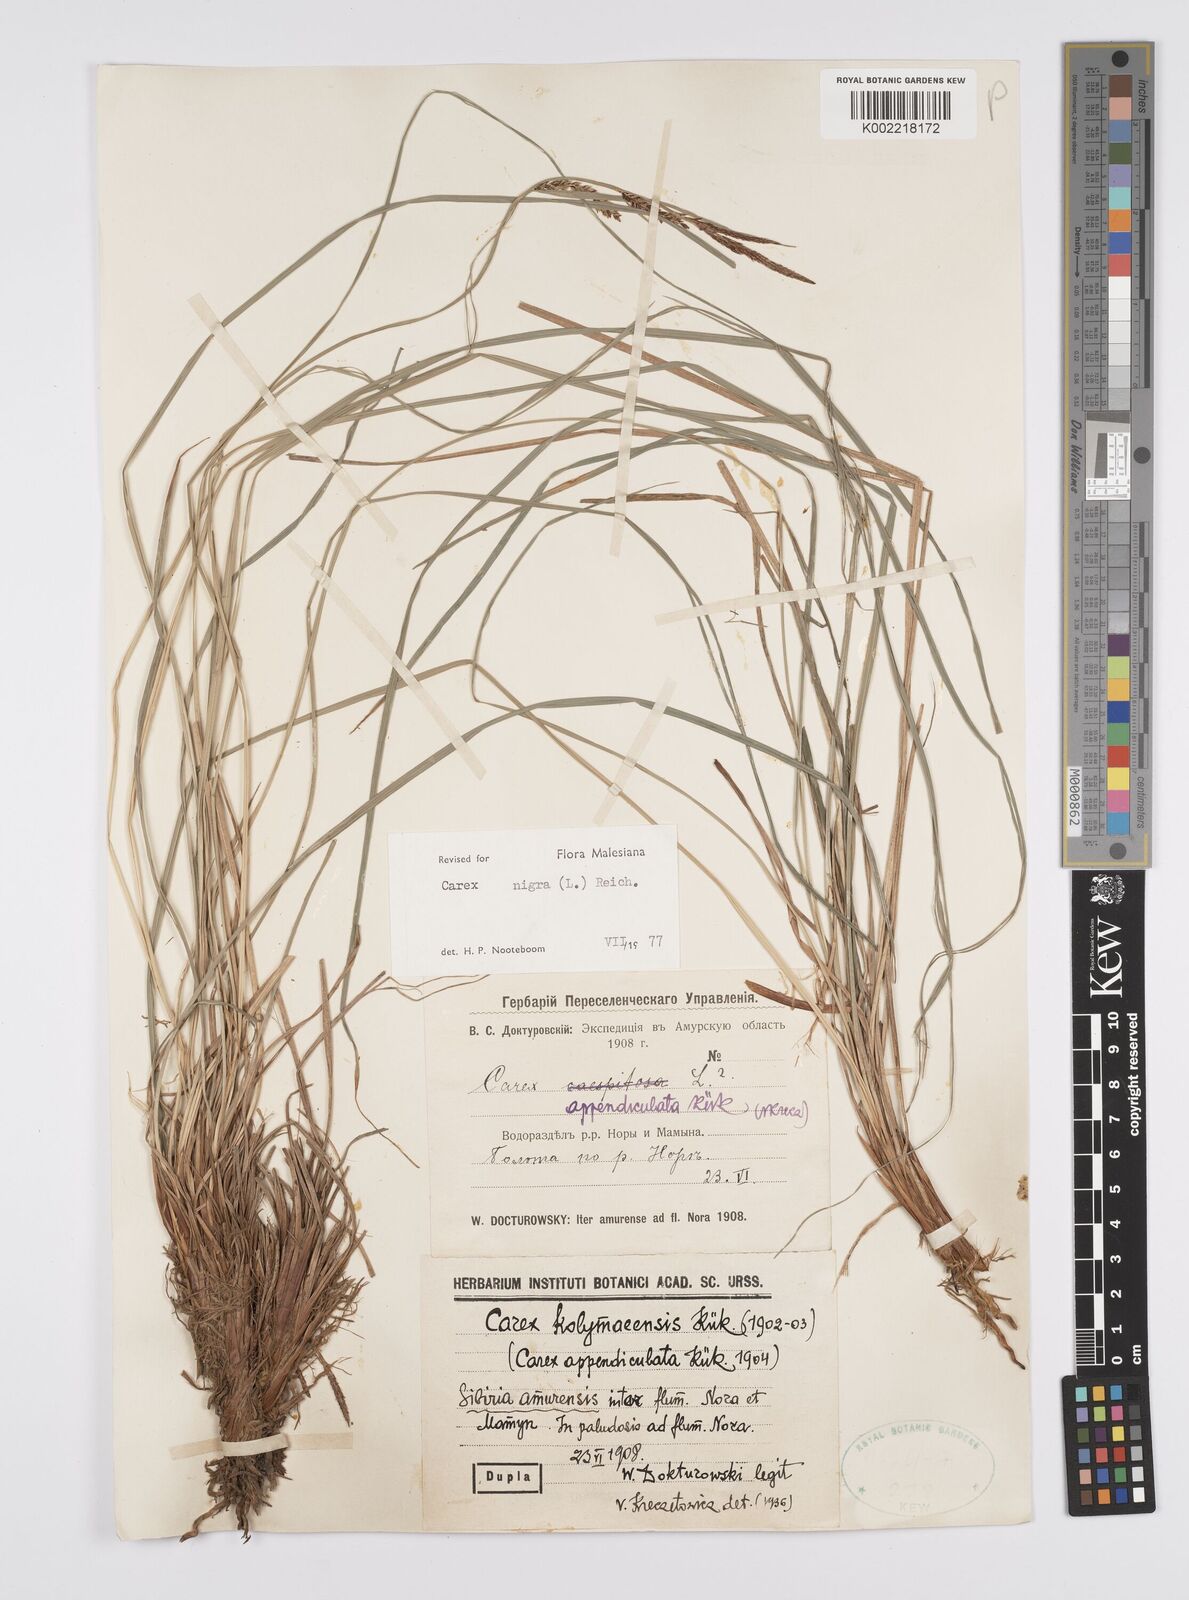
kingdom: Plantae
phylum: Tracheophyta
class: Liliopsida
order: Poales
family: Cyperaceae
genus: Carex
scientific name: Carex nigra
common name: Common sedge
